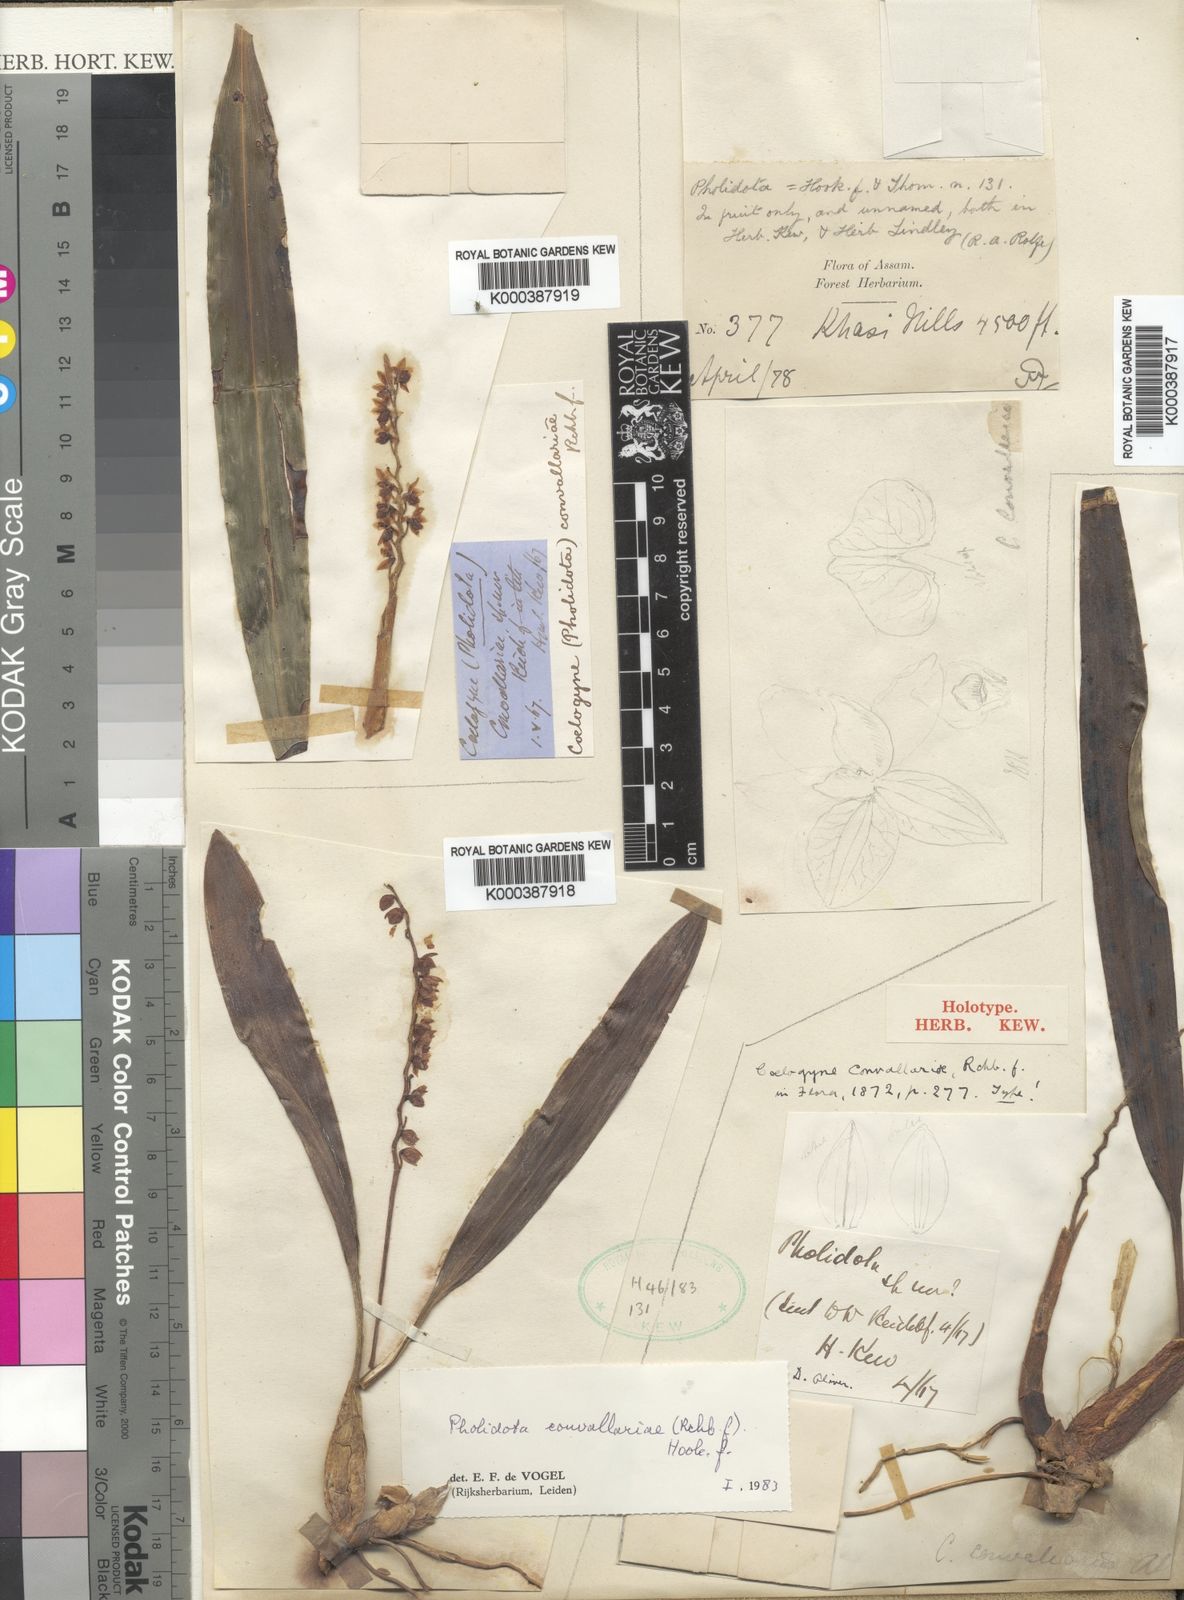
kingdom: Plantae
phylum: Tracheophyta
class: Liliopsida
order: Asparagales
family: Orchidaceae
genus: Coelogyne
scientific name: Coelogyne convallariae
